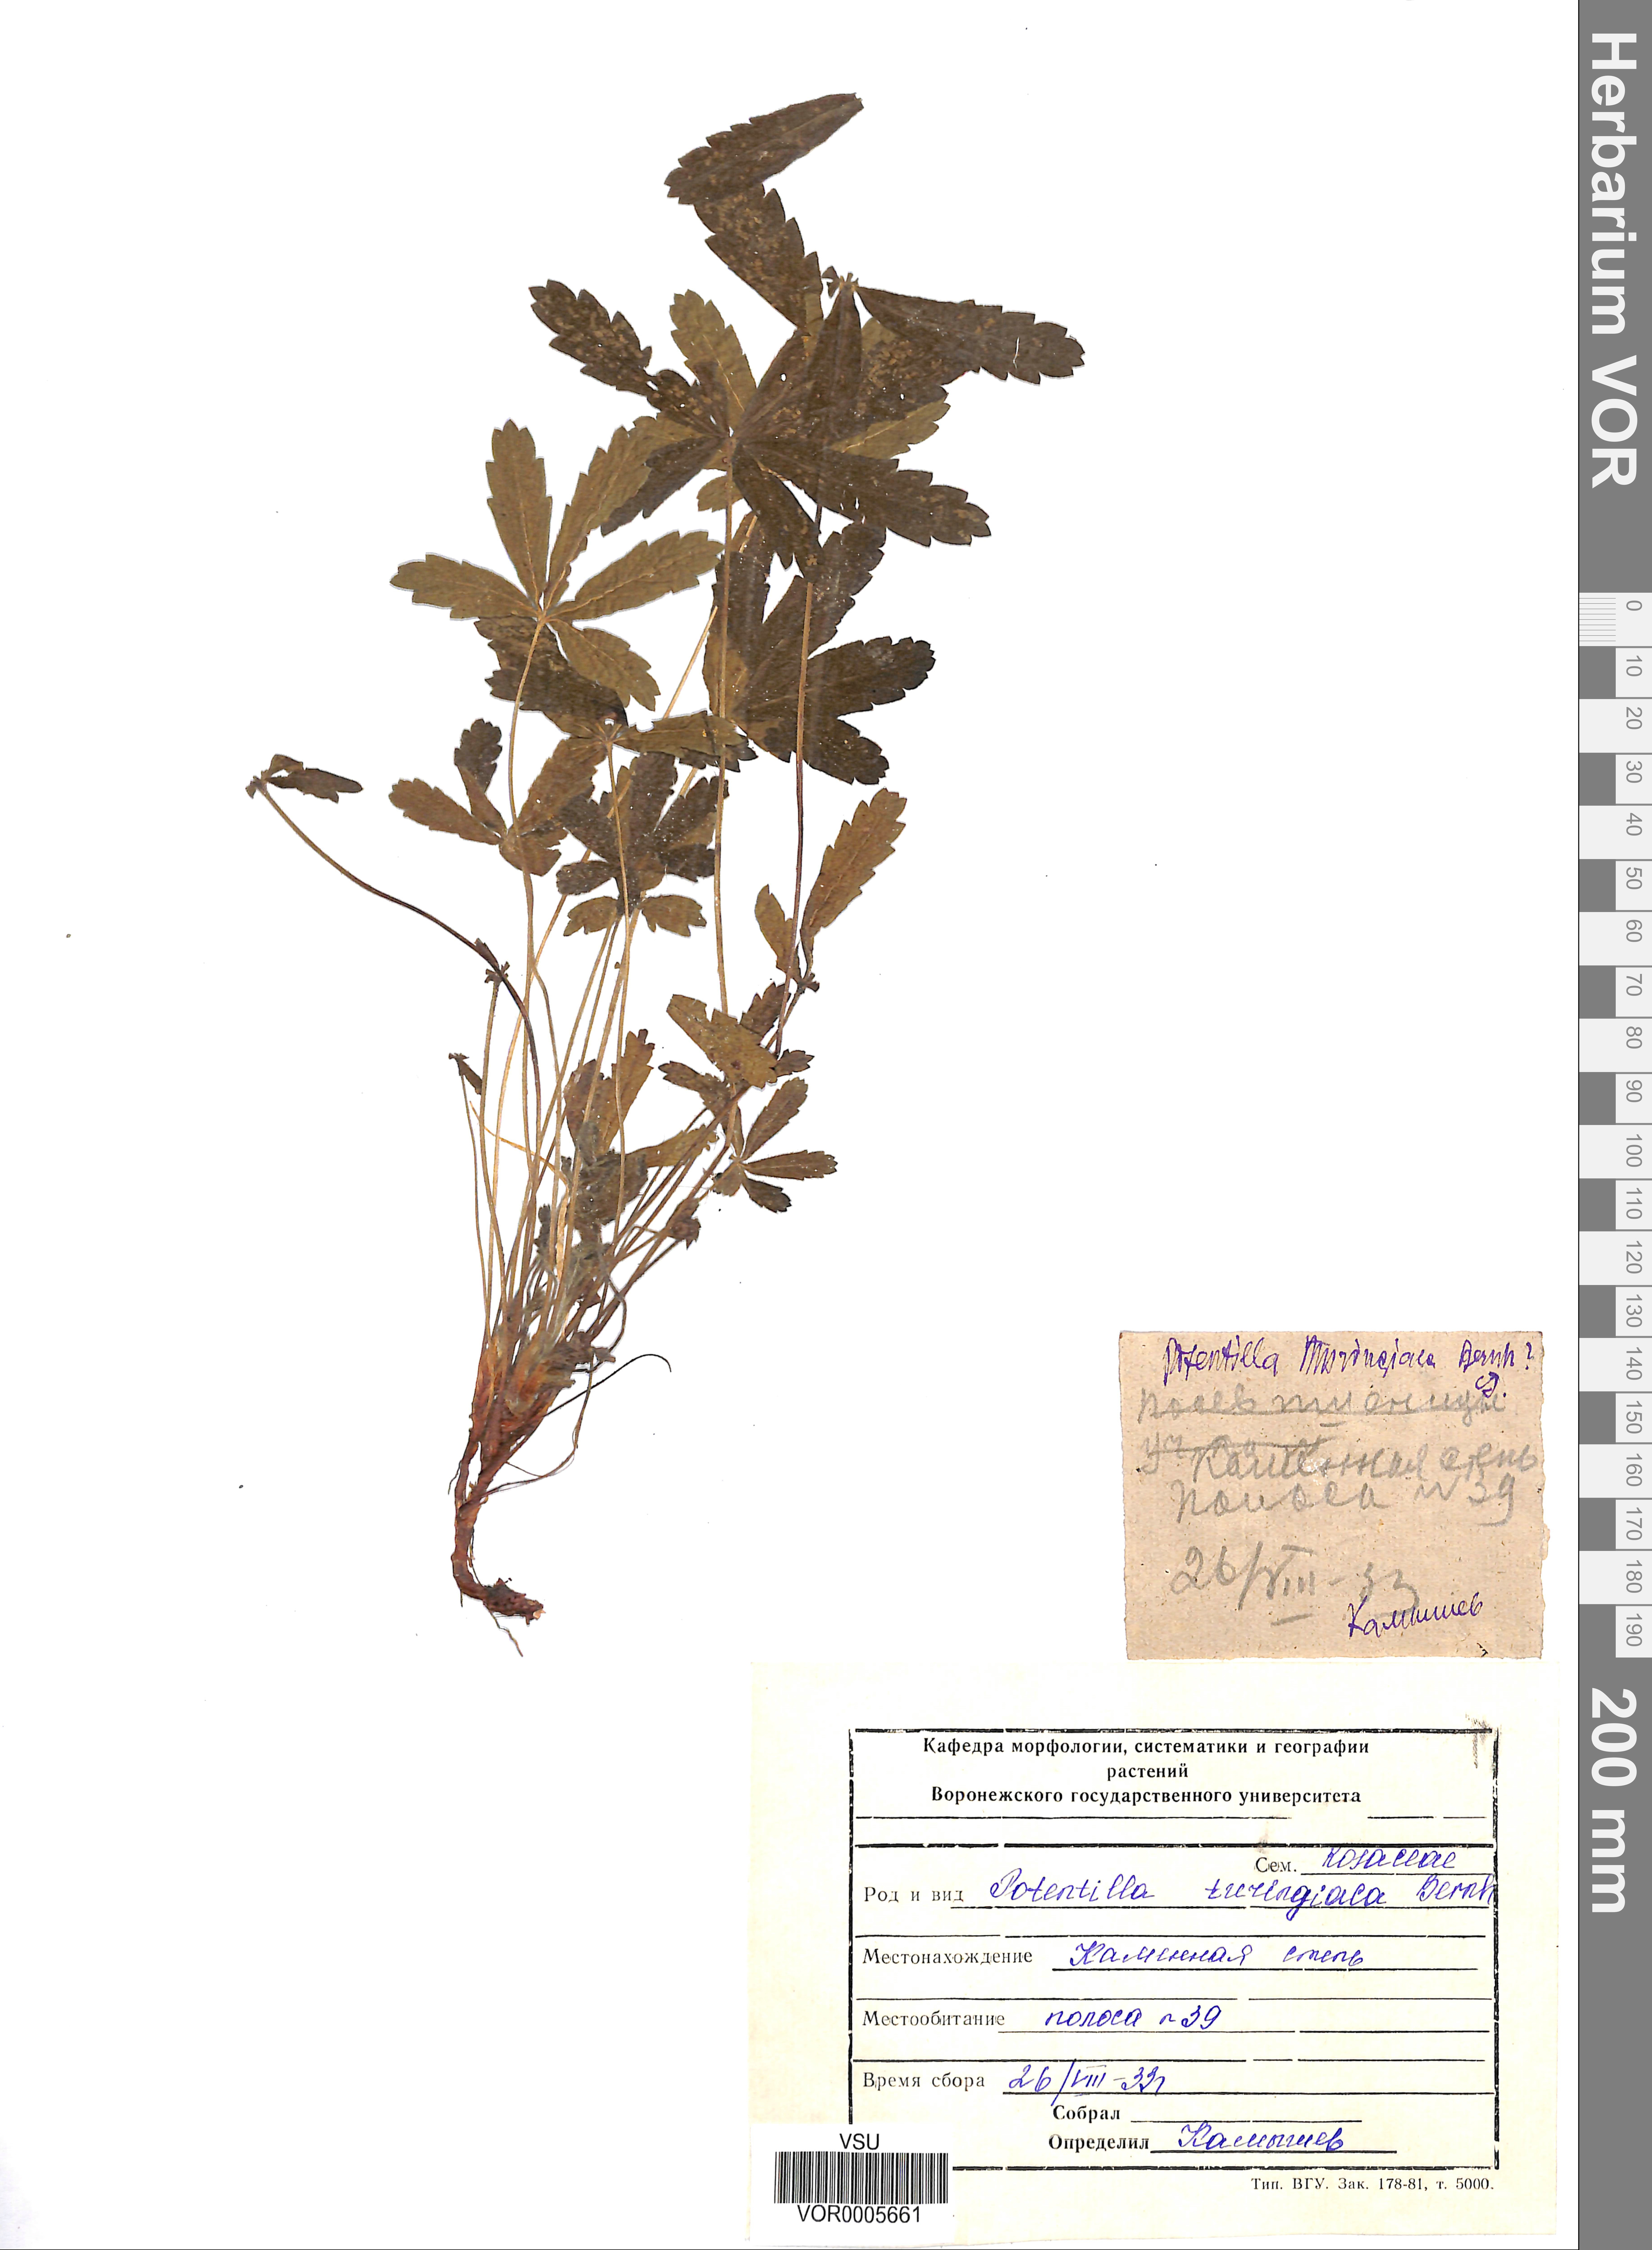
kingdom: Plantae
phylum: Tracheophyta
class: Magnoliopsida
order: Rosales
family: Rosaceae
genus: Potentilla
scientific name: Potentilla thuringiaca
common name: European cinquefoil
